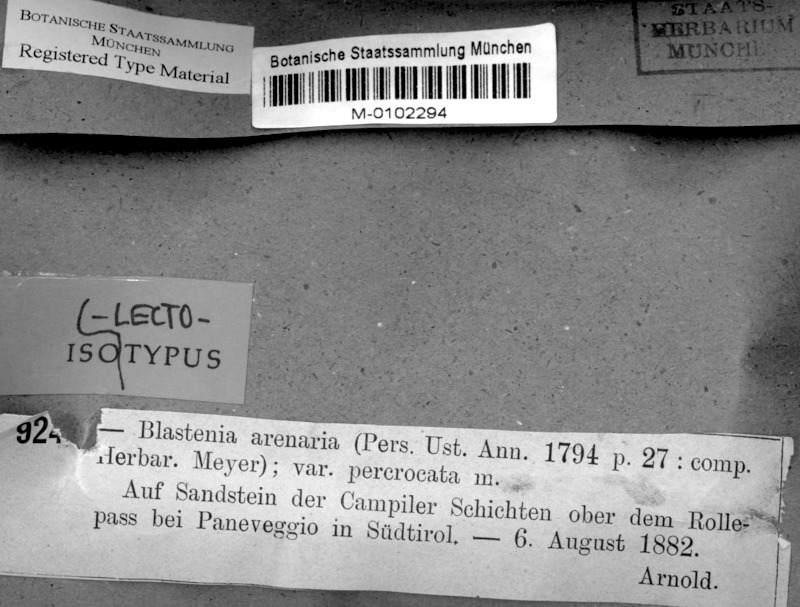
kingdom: Fungi
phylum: Ascomycota
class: Lecanoromycetes
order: Teloschistales
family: Teloschistaceae
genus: Kuettlingeria
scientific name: Kuettlingeria percrocata
